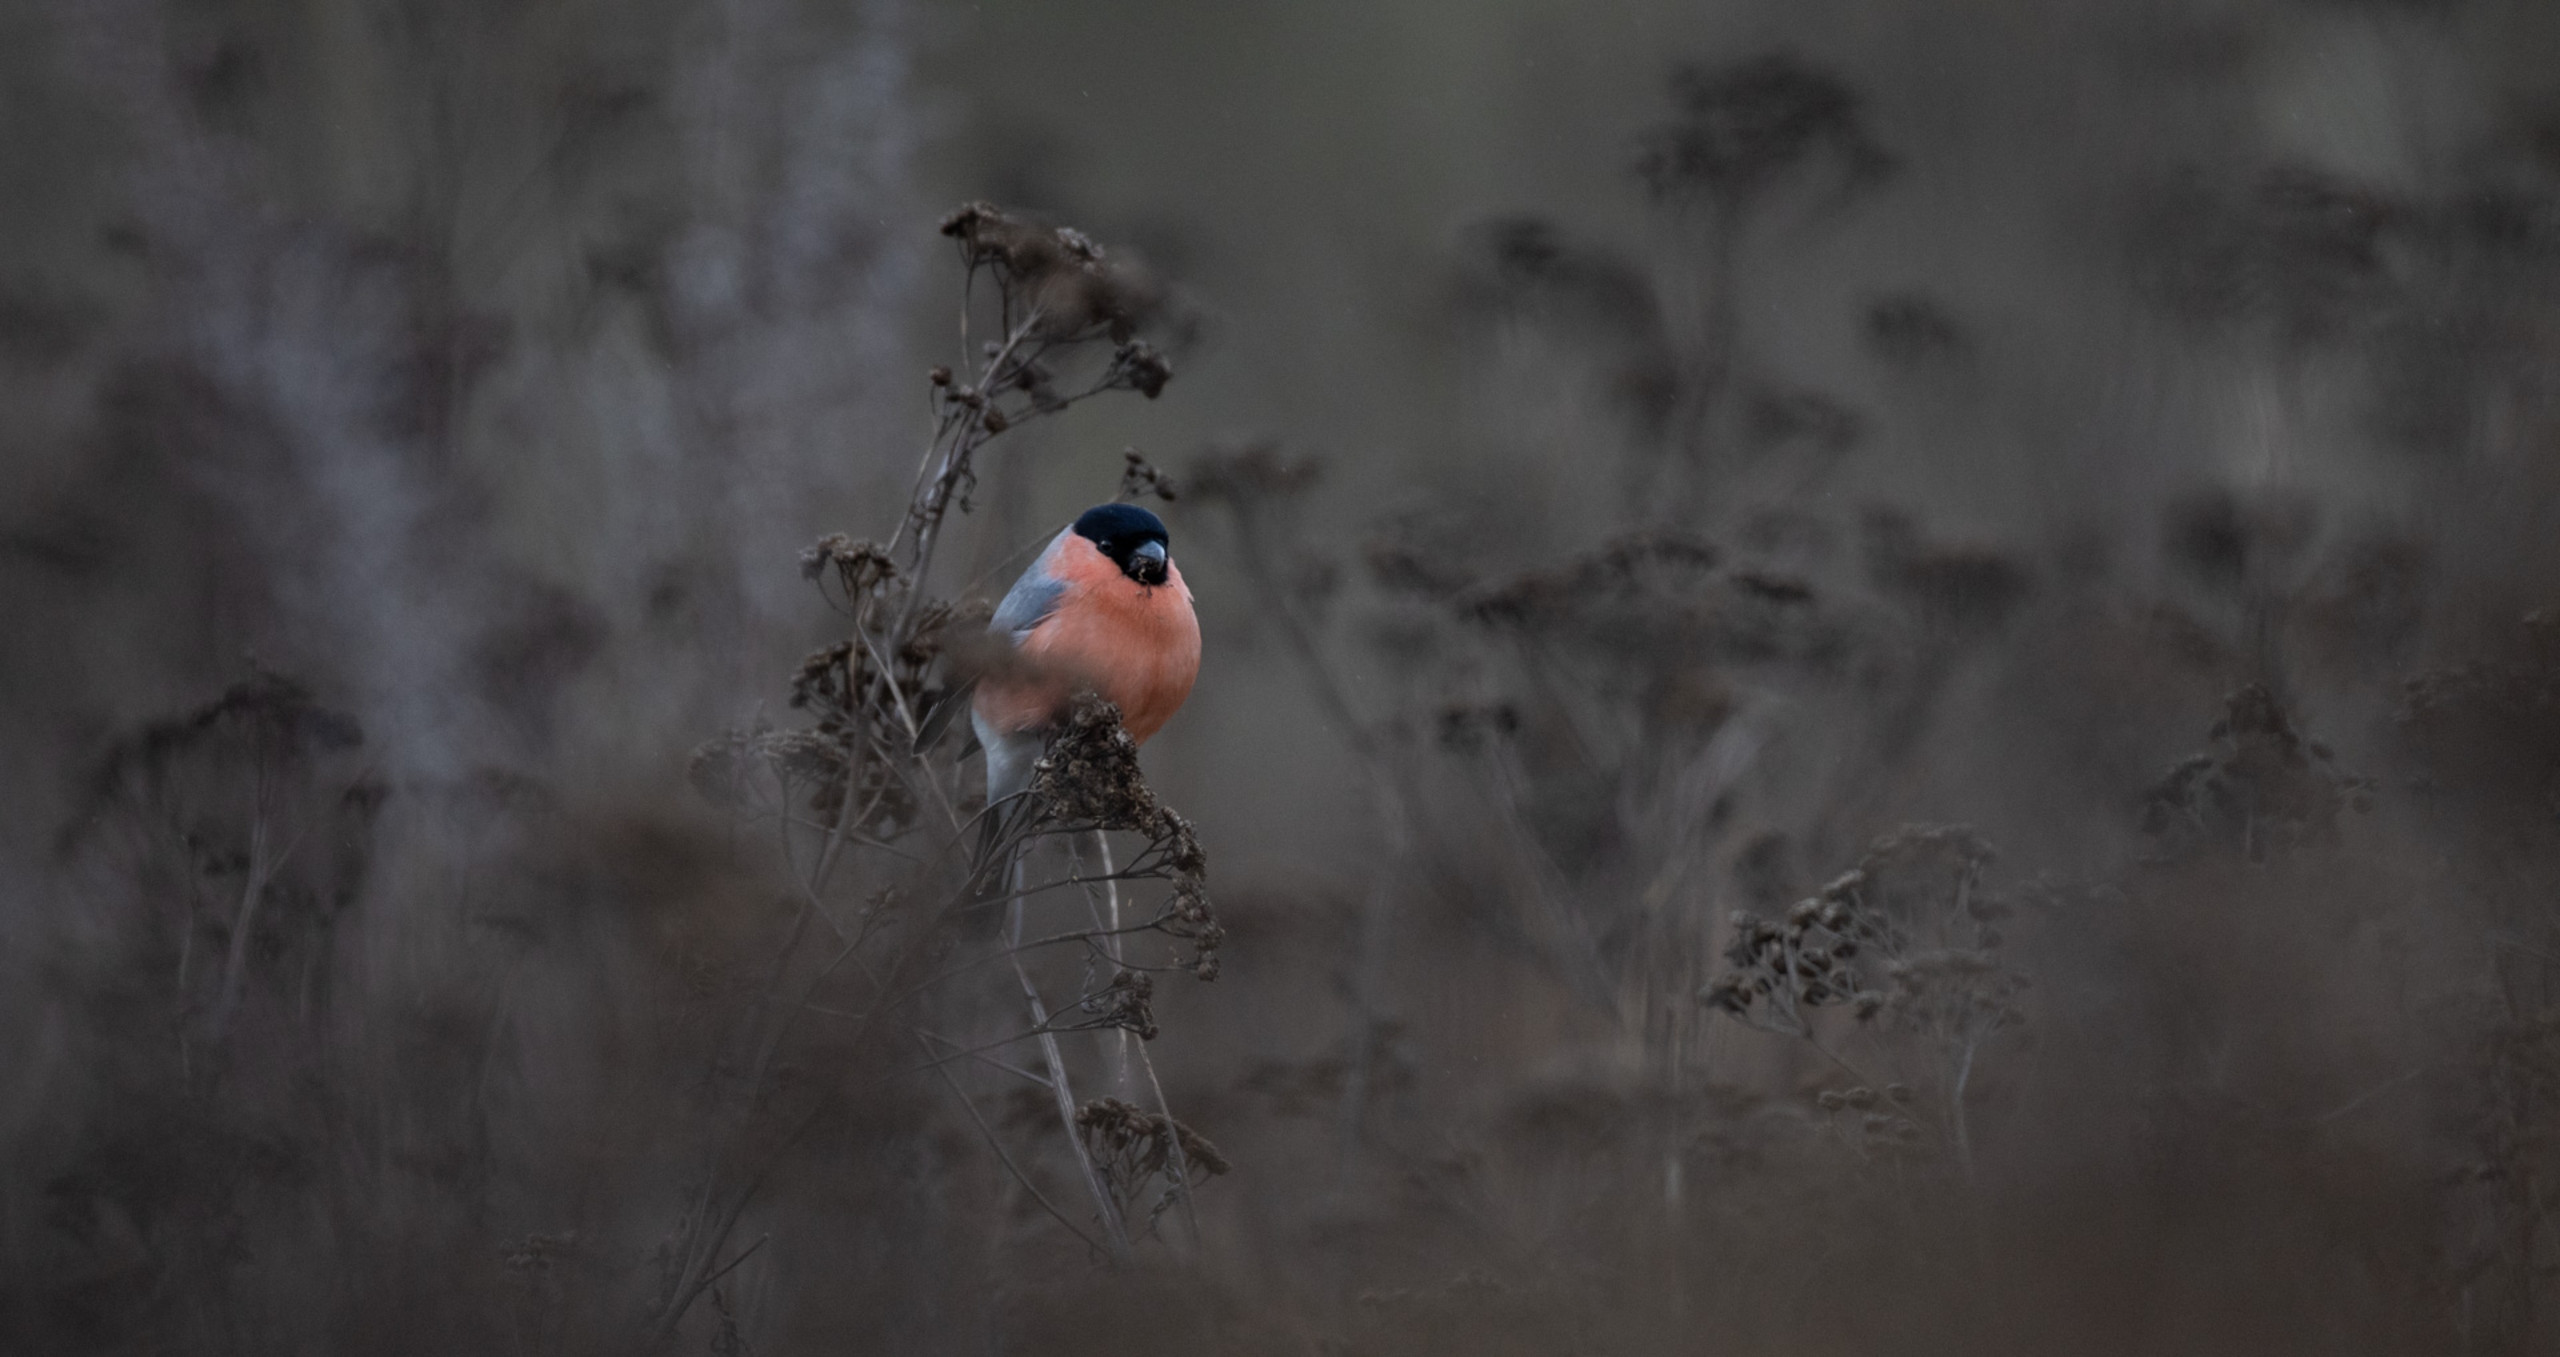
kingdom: Animalia
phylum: Chordata
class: Aves
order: Passeriformes
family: Fringillidae
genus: Pyrrhula
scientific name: Pyrrhula pyrrhula
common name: Dompap
